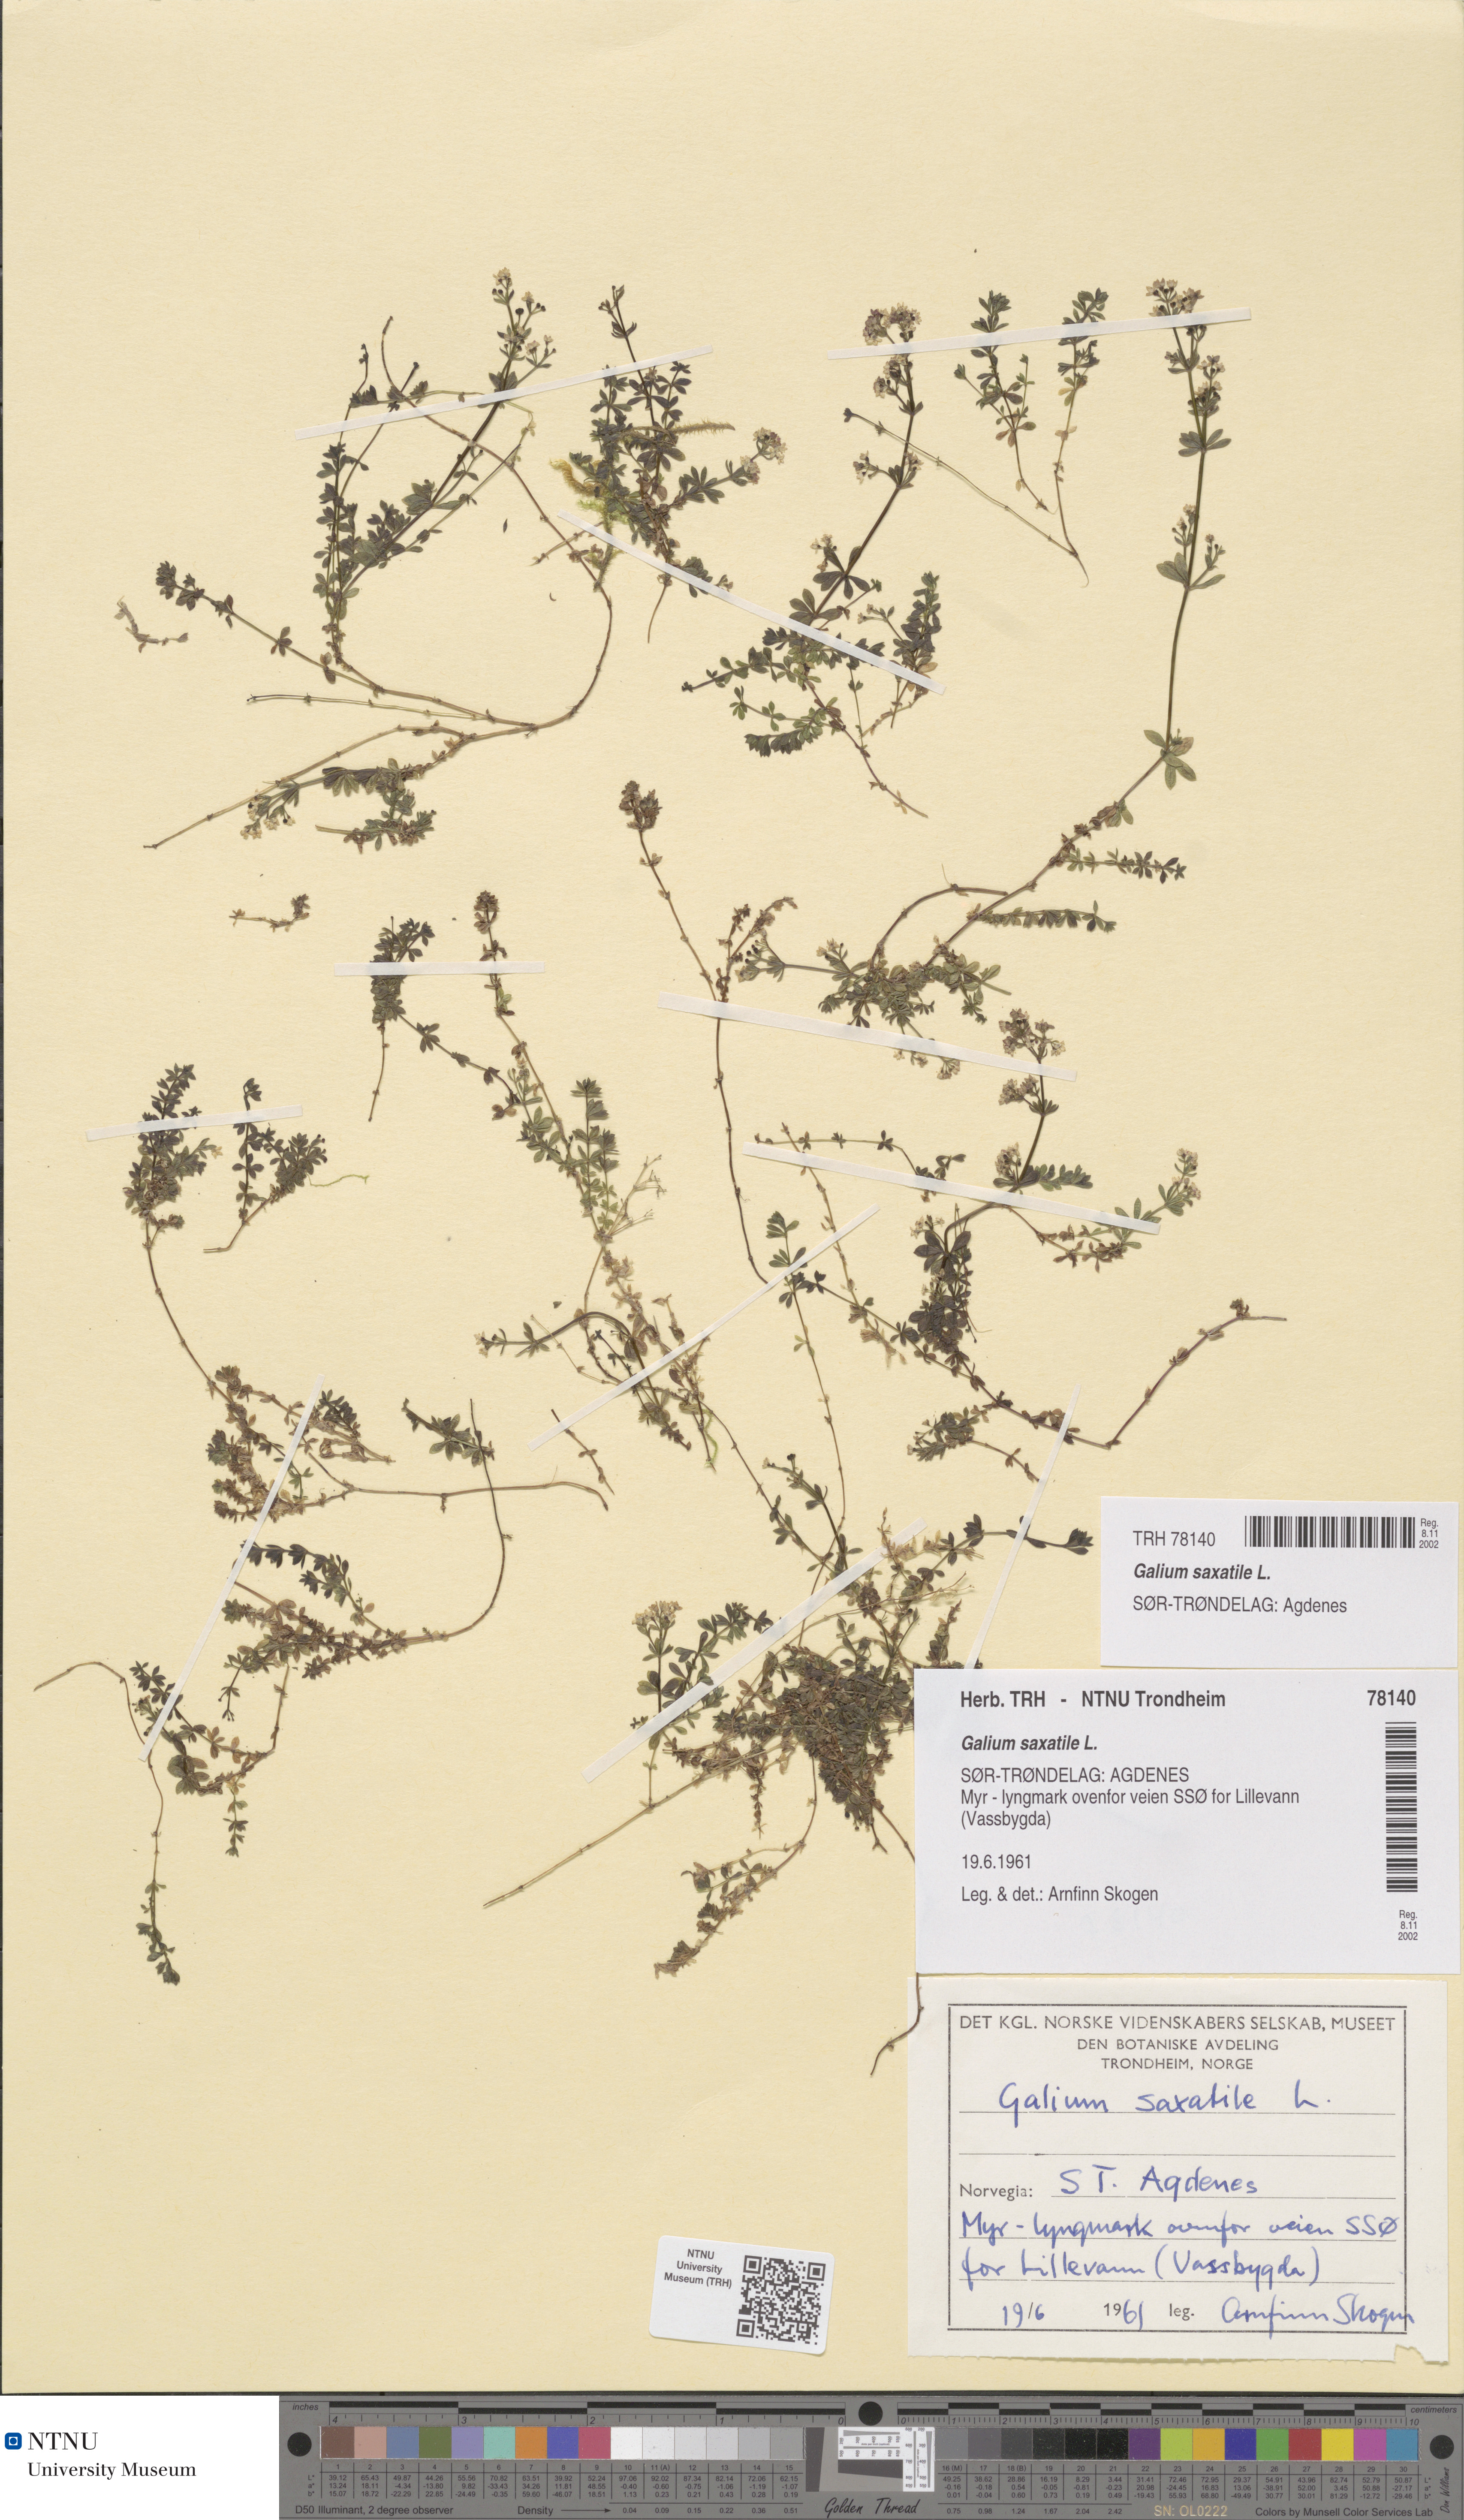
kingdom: Plantae
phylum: Tracheophyta
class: Magnoliopsida
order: Gentianales
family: Rubiaceae
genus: Galium
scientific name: Galium saxatile
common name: Heath bedstraw
